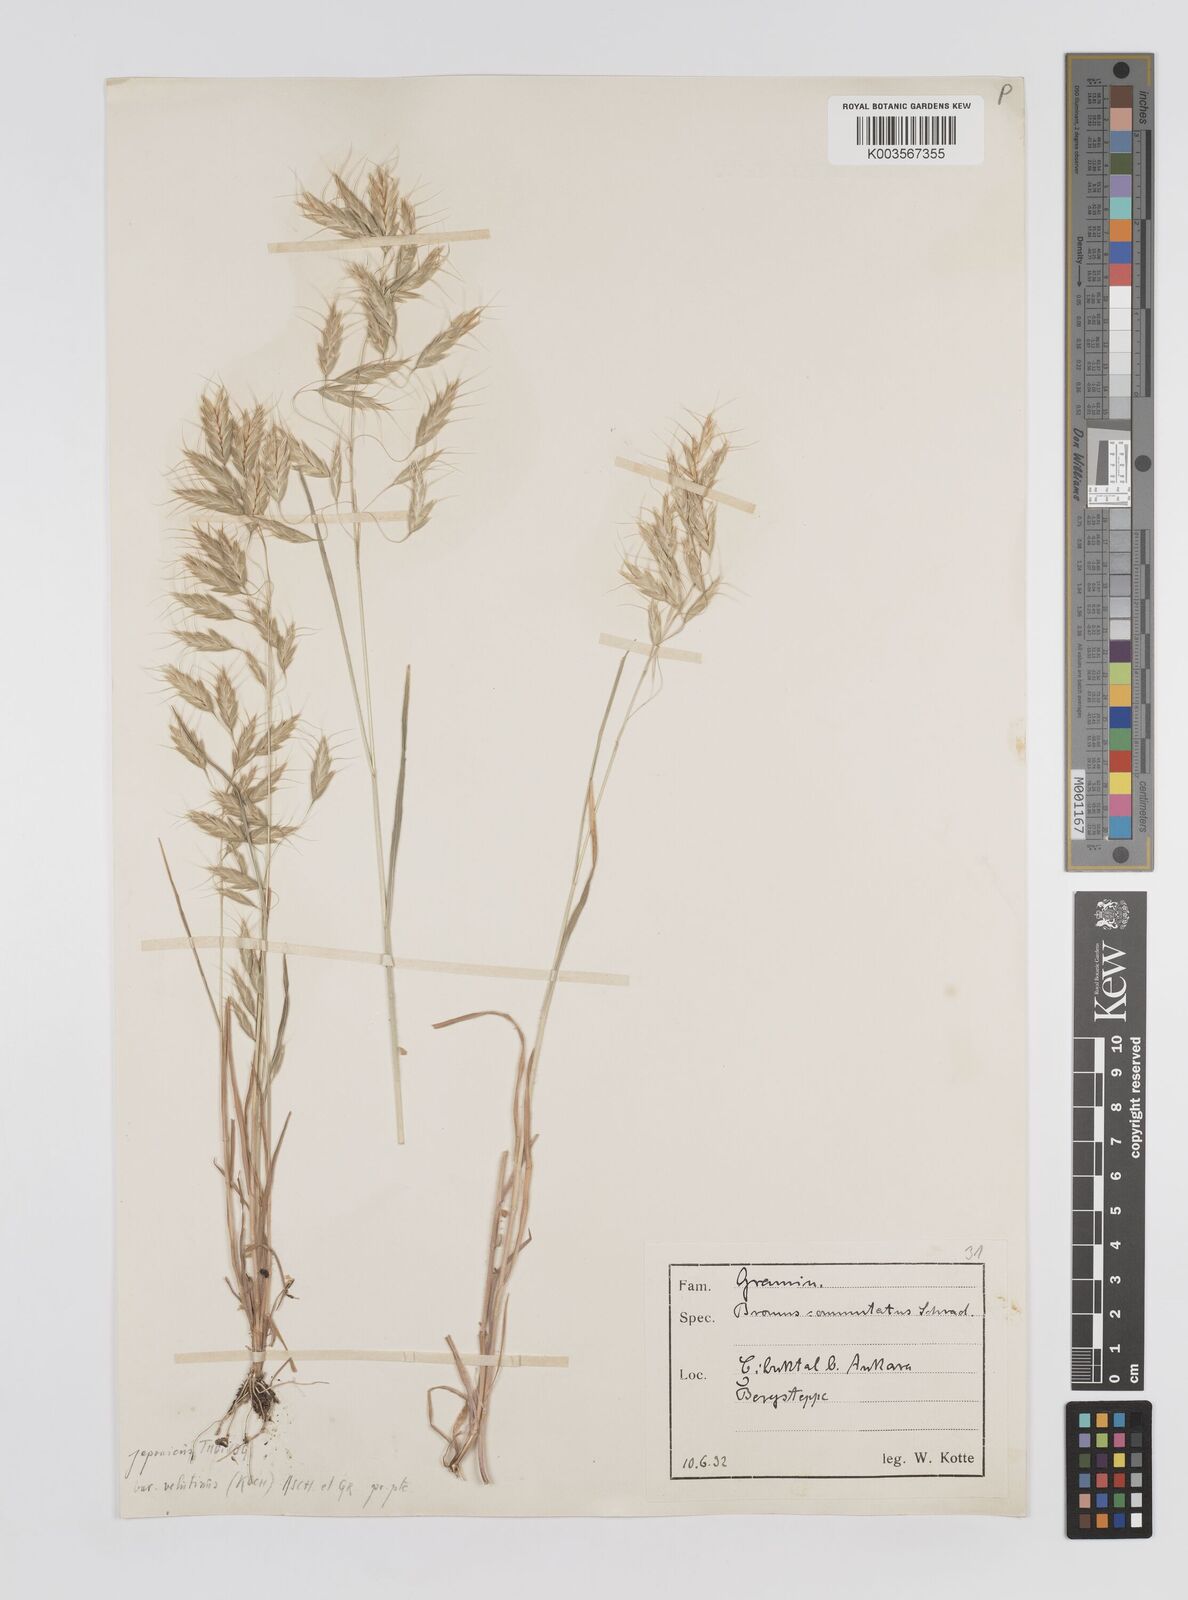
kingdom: Plantae
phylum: Tracheophyta
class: Liliopsida
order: Poales
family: Poaceae
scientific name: Poaceae
